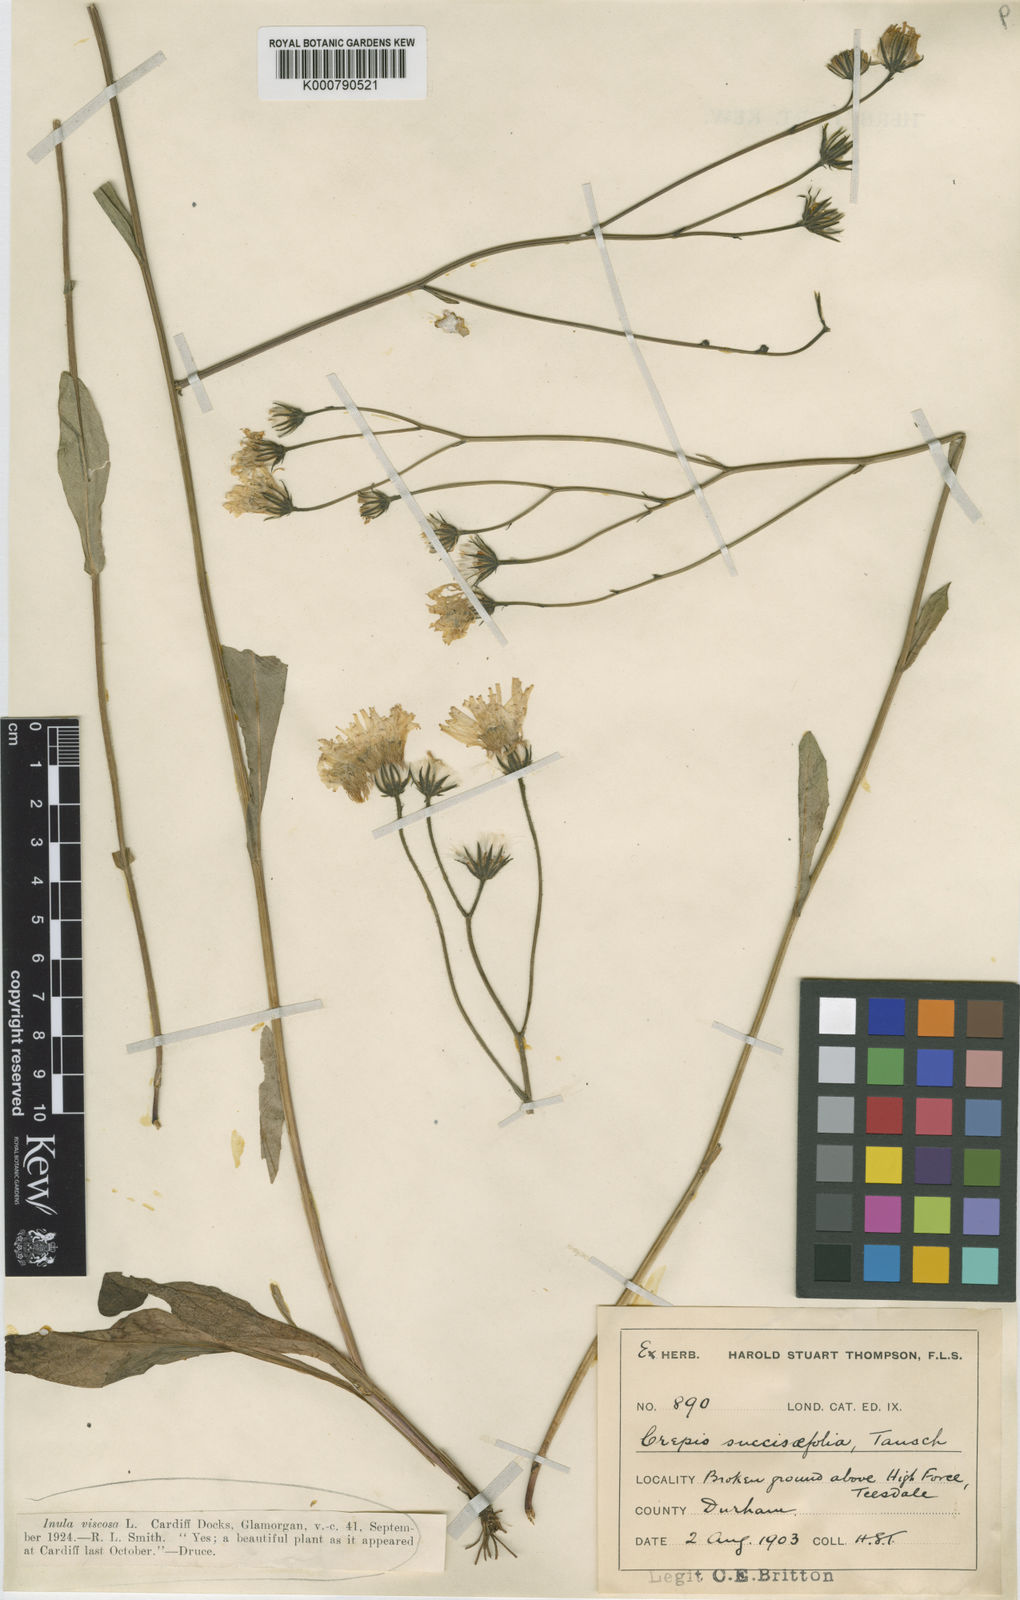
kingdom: Plantae
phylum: Tracheophyta
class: Magnoliopsida
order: Asterales
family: Asteraceae
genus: Crepis
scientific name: Crepis mollis
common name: Northern hawk's-beard
